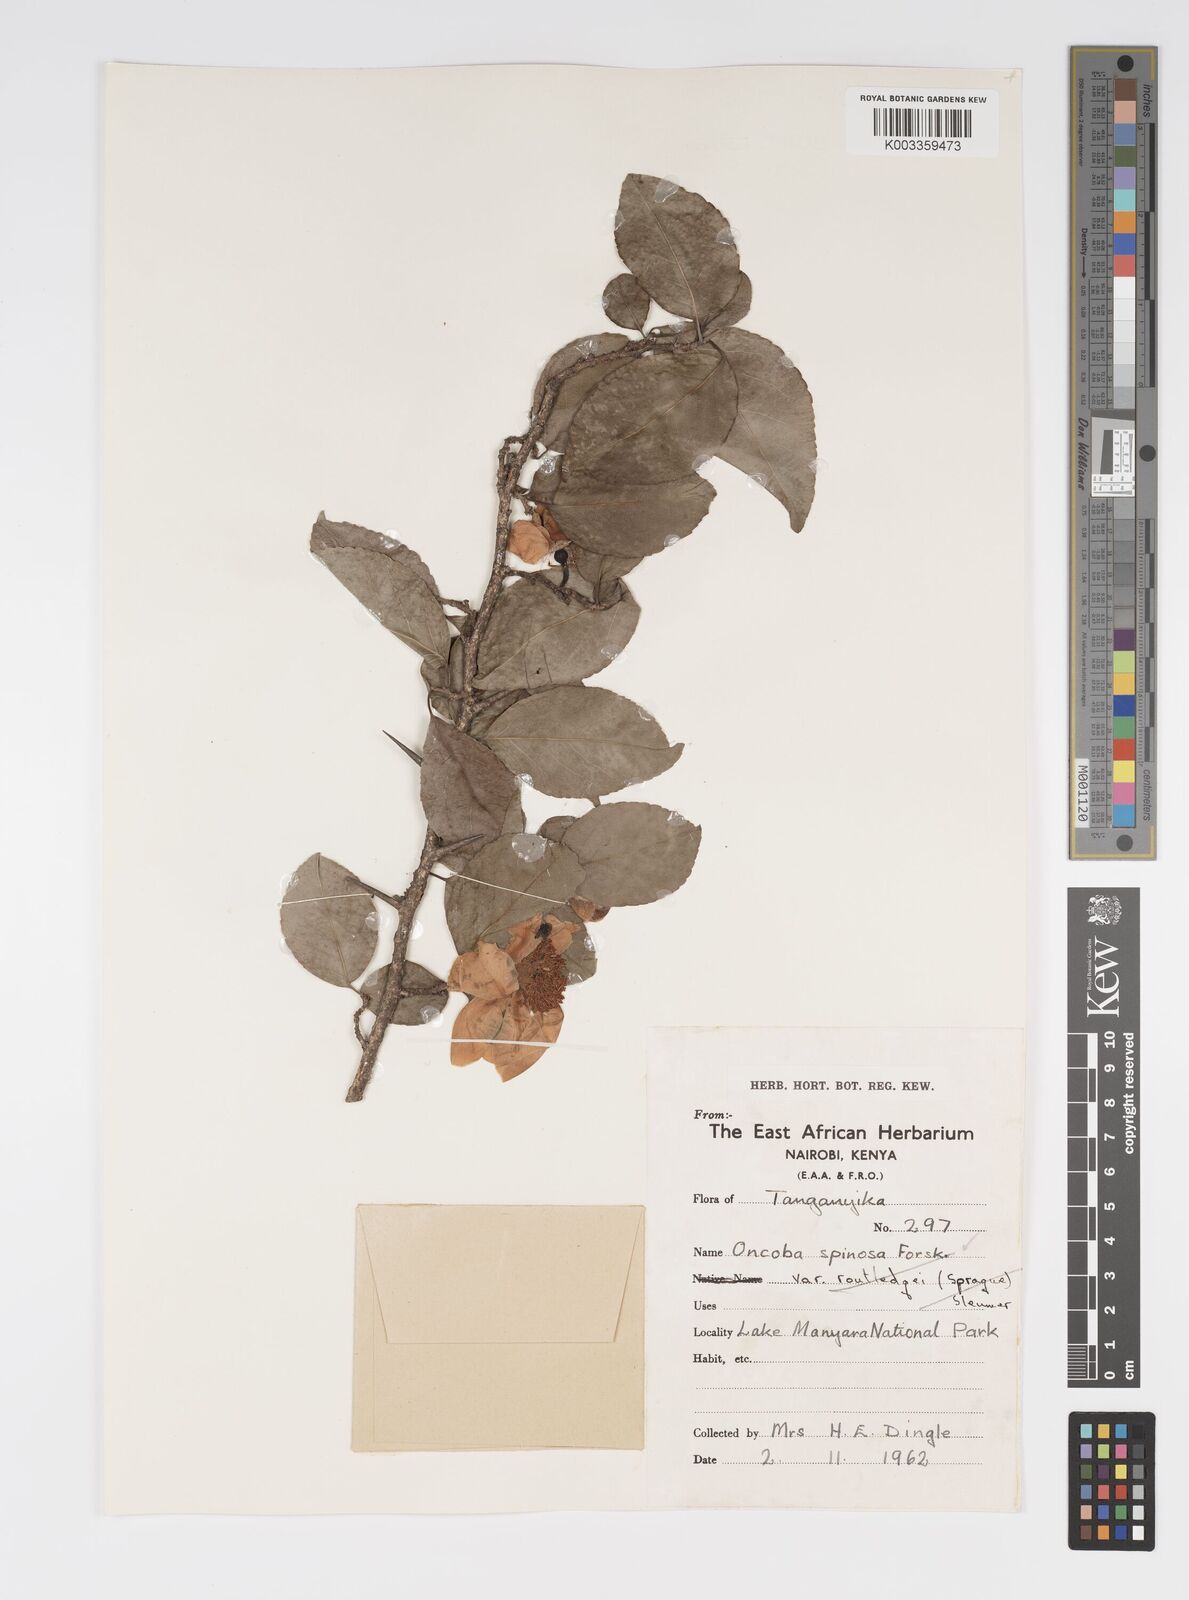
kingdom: Plantae
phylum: Tracheophyta
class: Magnoliopsida
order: Malpighiales
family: Salicaceae
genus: Oncoba
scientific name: Oncoba spinosa
